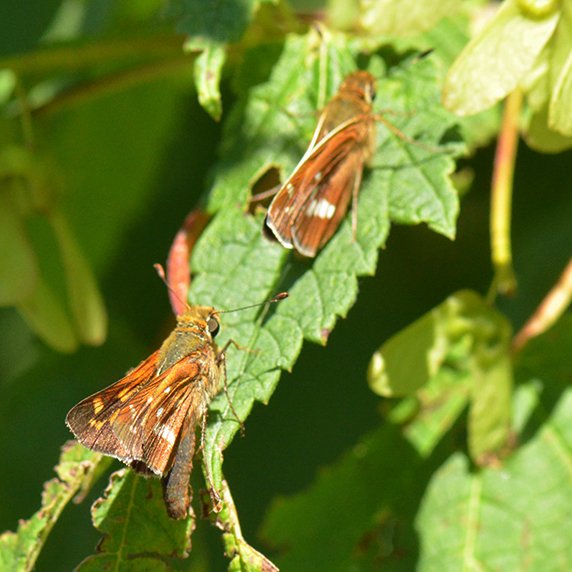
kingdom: Animalia
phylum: Arthropoda
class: Insecta
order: Lepidoptera
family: Hesperiidae
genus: Hesperia
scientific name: Hesperia leonardus
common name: Leonard's Skipper
